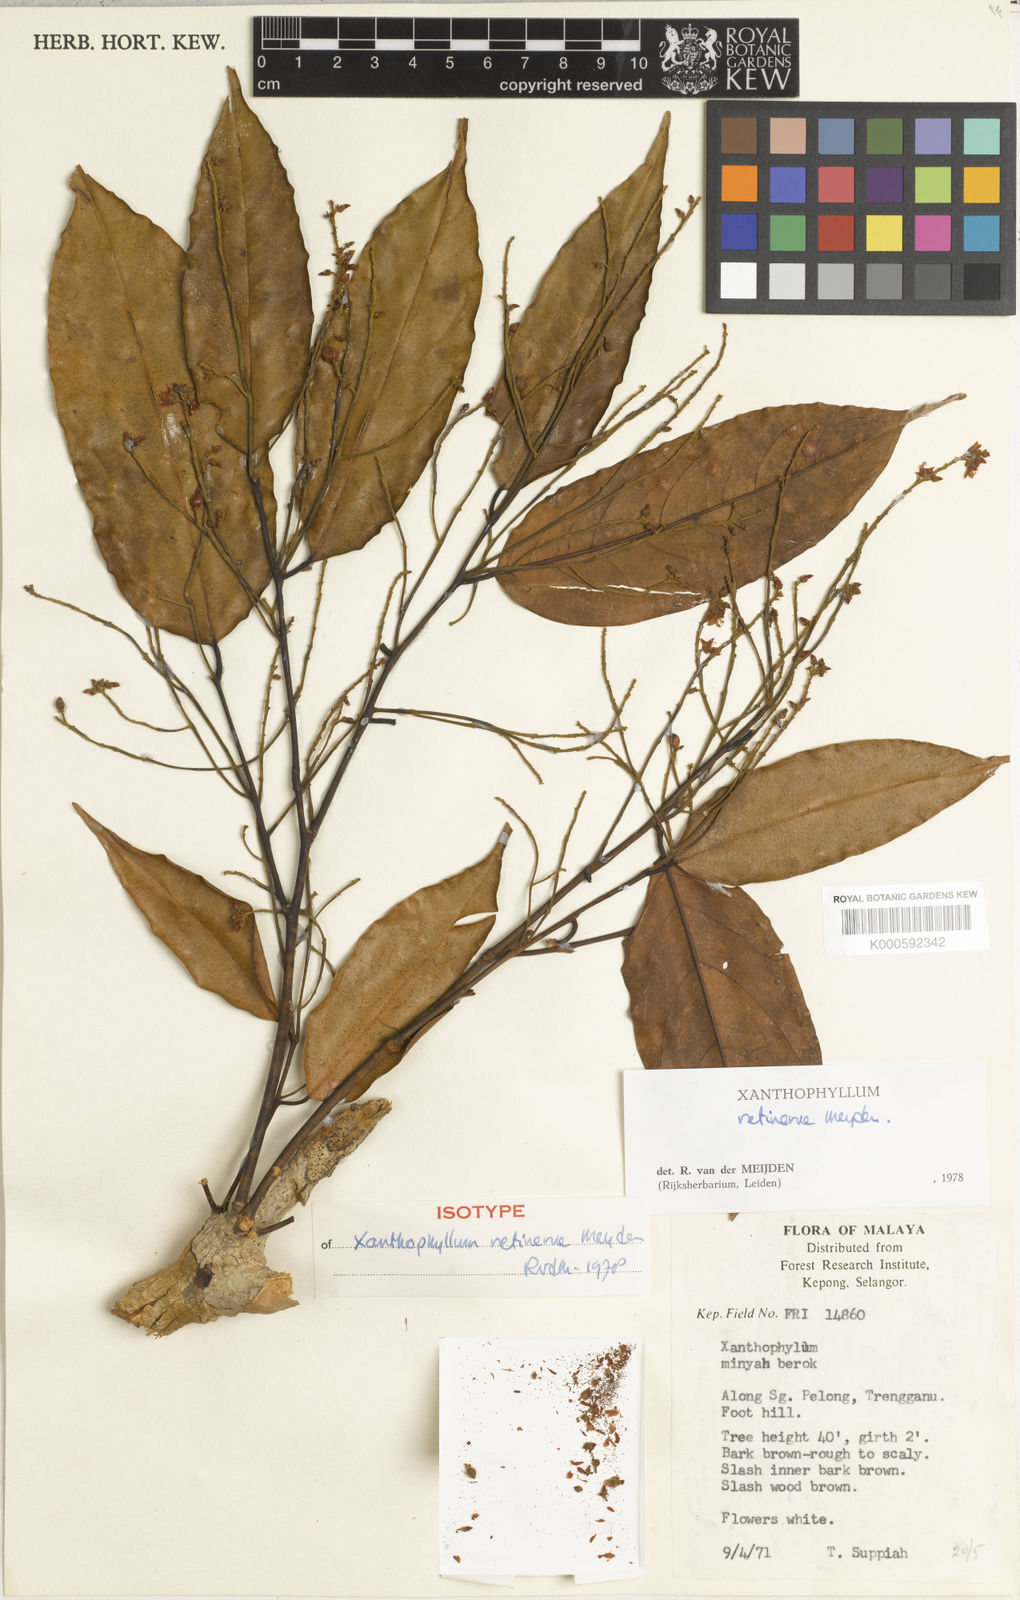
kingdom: Plantae
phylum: Tracheophyta
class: Magnoliopsida
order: Fabales
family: Polygalaceae
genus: Xanthophyllum
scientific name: Xanthophyllum retinerve
